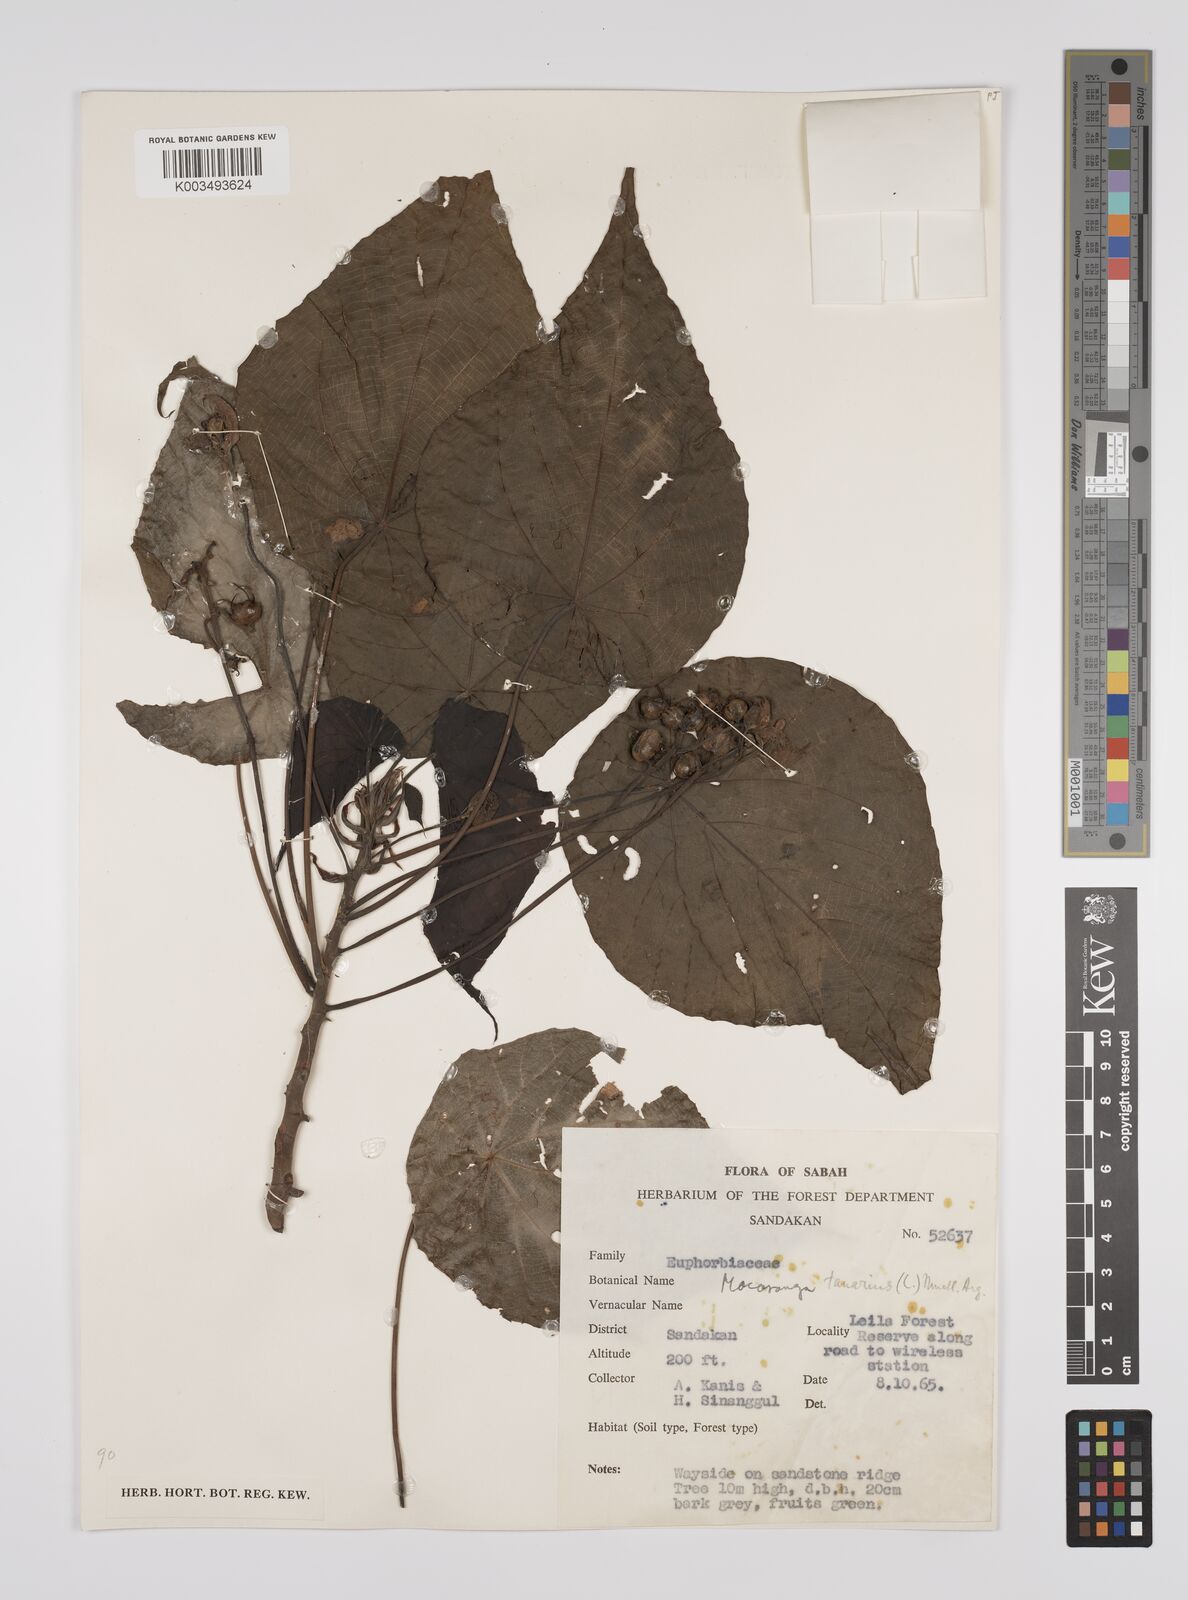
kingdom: Plantae
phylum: Tracheophyta
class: Magnoliopsida
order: Malpighiales
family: Euphorbiaceae
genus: Macaranga
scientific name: Macaranga tanarius
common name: Parasol leaf tree
